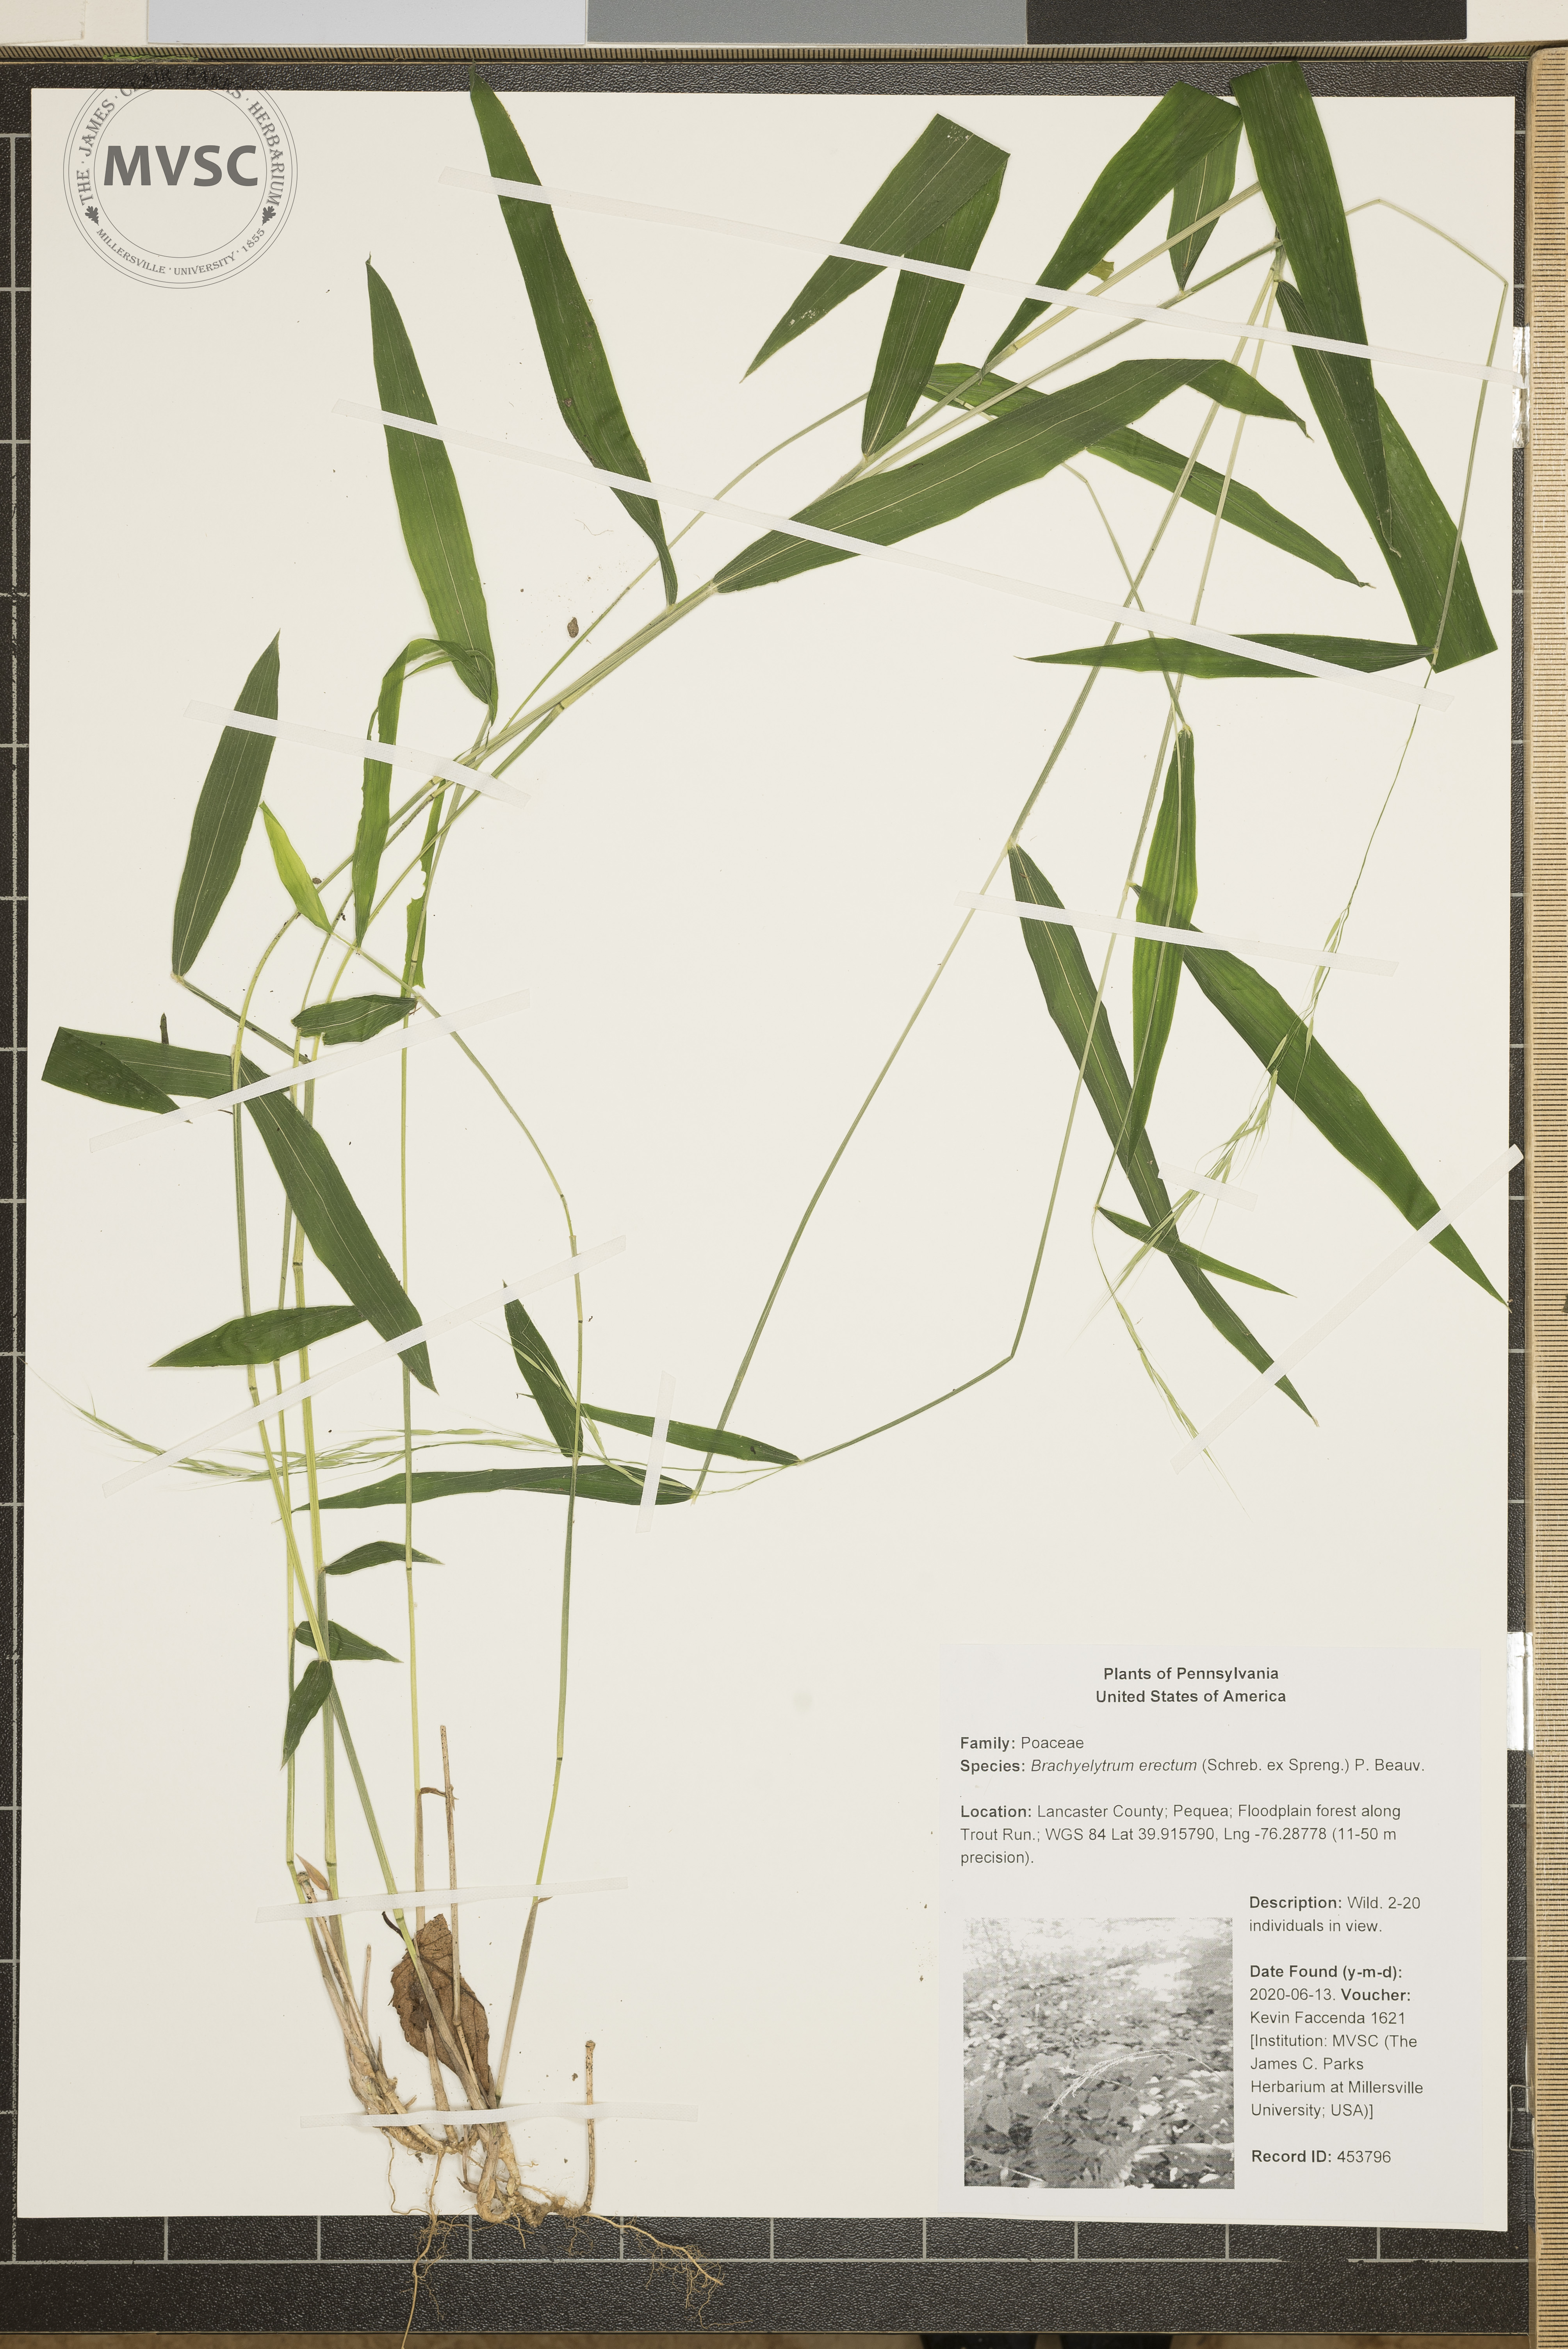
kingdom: Plantae
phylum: Tracheophyta
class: Liliopsida
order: Poales
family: Poaceae
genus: Brachyelytrum
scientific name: Brachyelytrum erectum
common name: Bearded shorthusk
